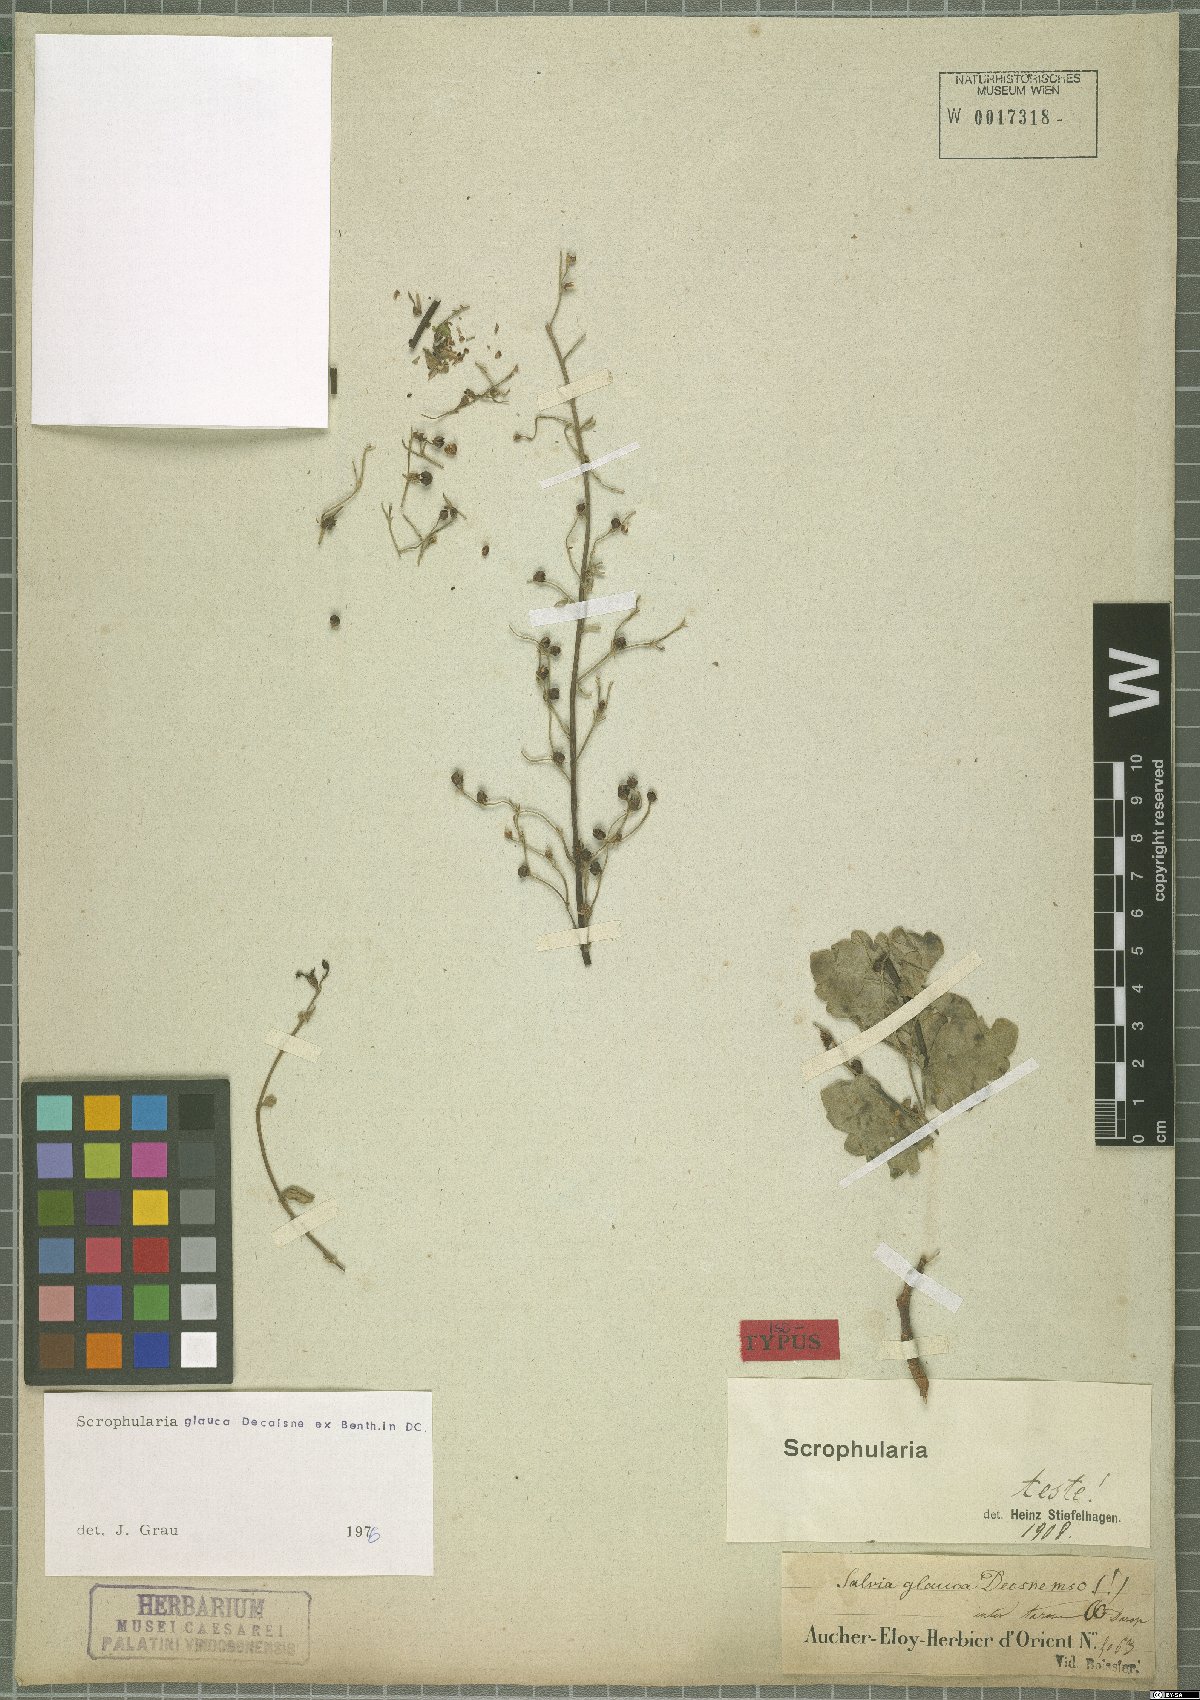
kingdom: Plantae
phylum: Tracheophyta
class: Magnoliopsida
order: Lamiales
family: Scrophulariaceae
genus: Scrophularia
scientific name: Scrophularia prasiifolia
